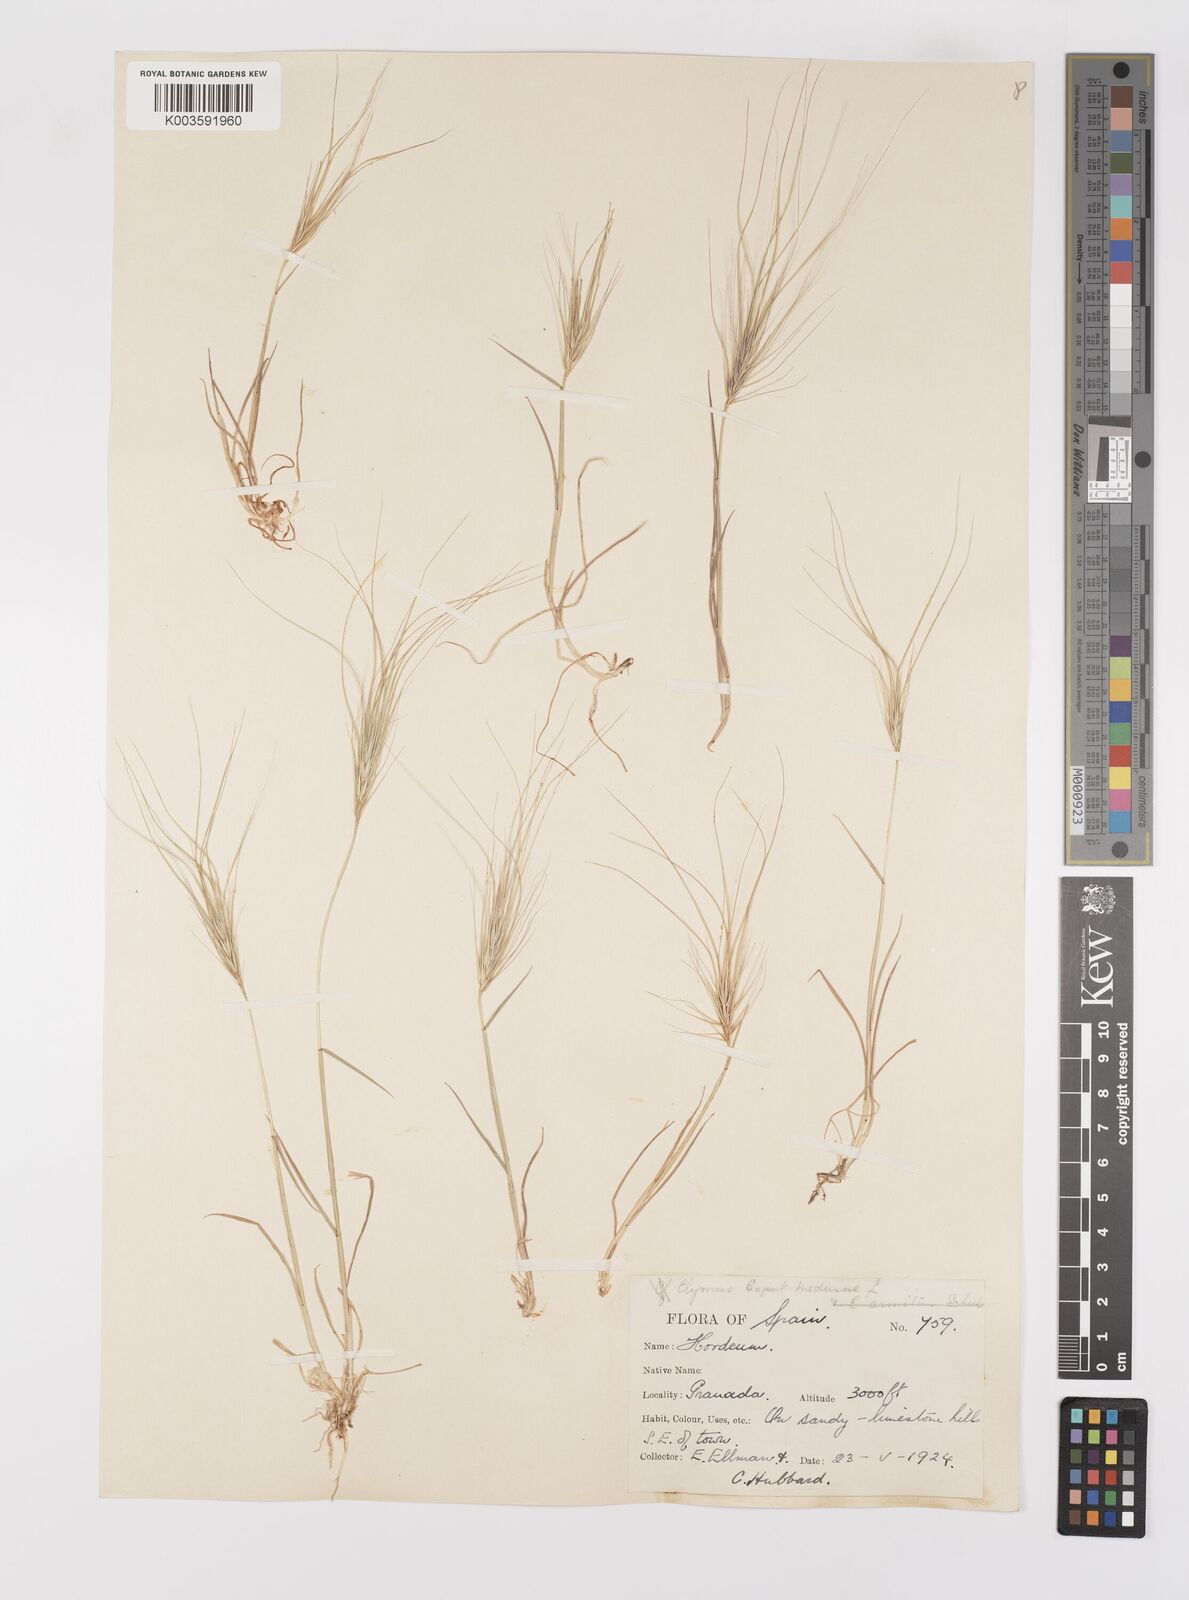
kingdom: Plantae
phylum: Tracheophyta
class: Liliopsida
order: Poales
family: Poaceae
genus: Taeniatherum
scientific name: Taeniatherum caput-medusae
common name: Medusahead
